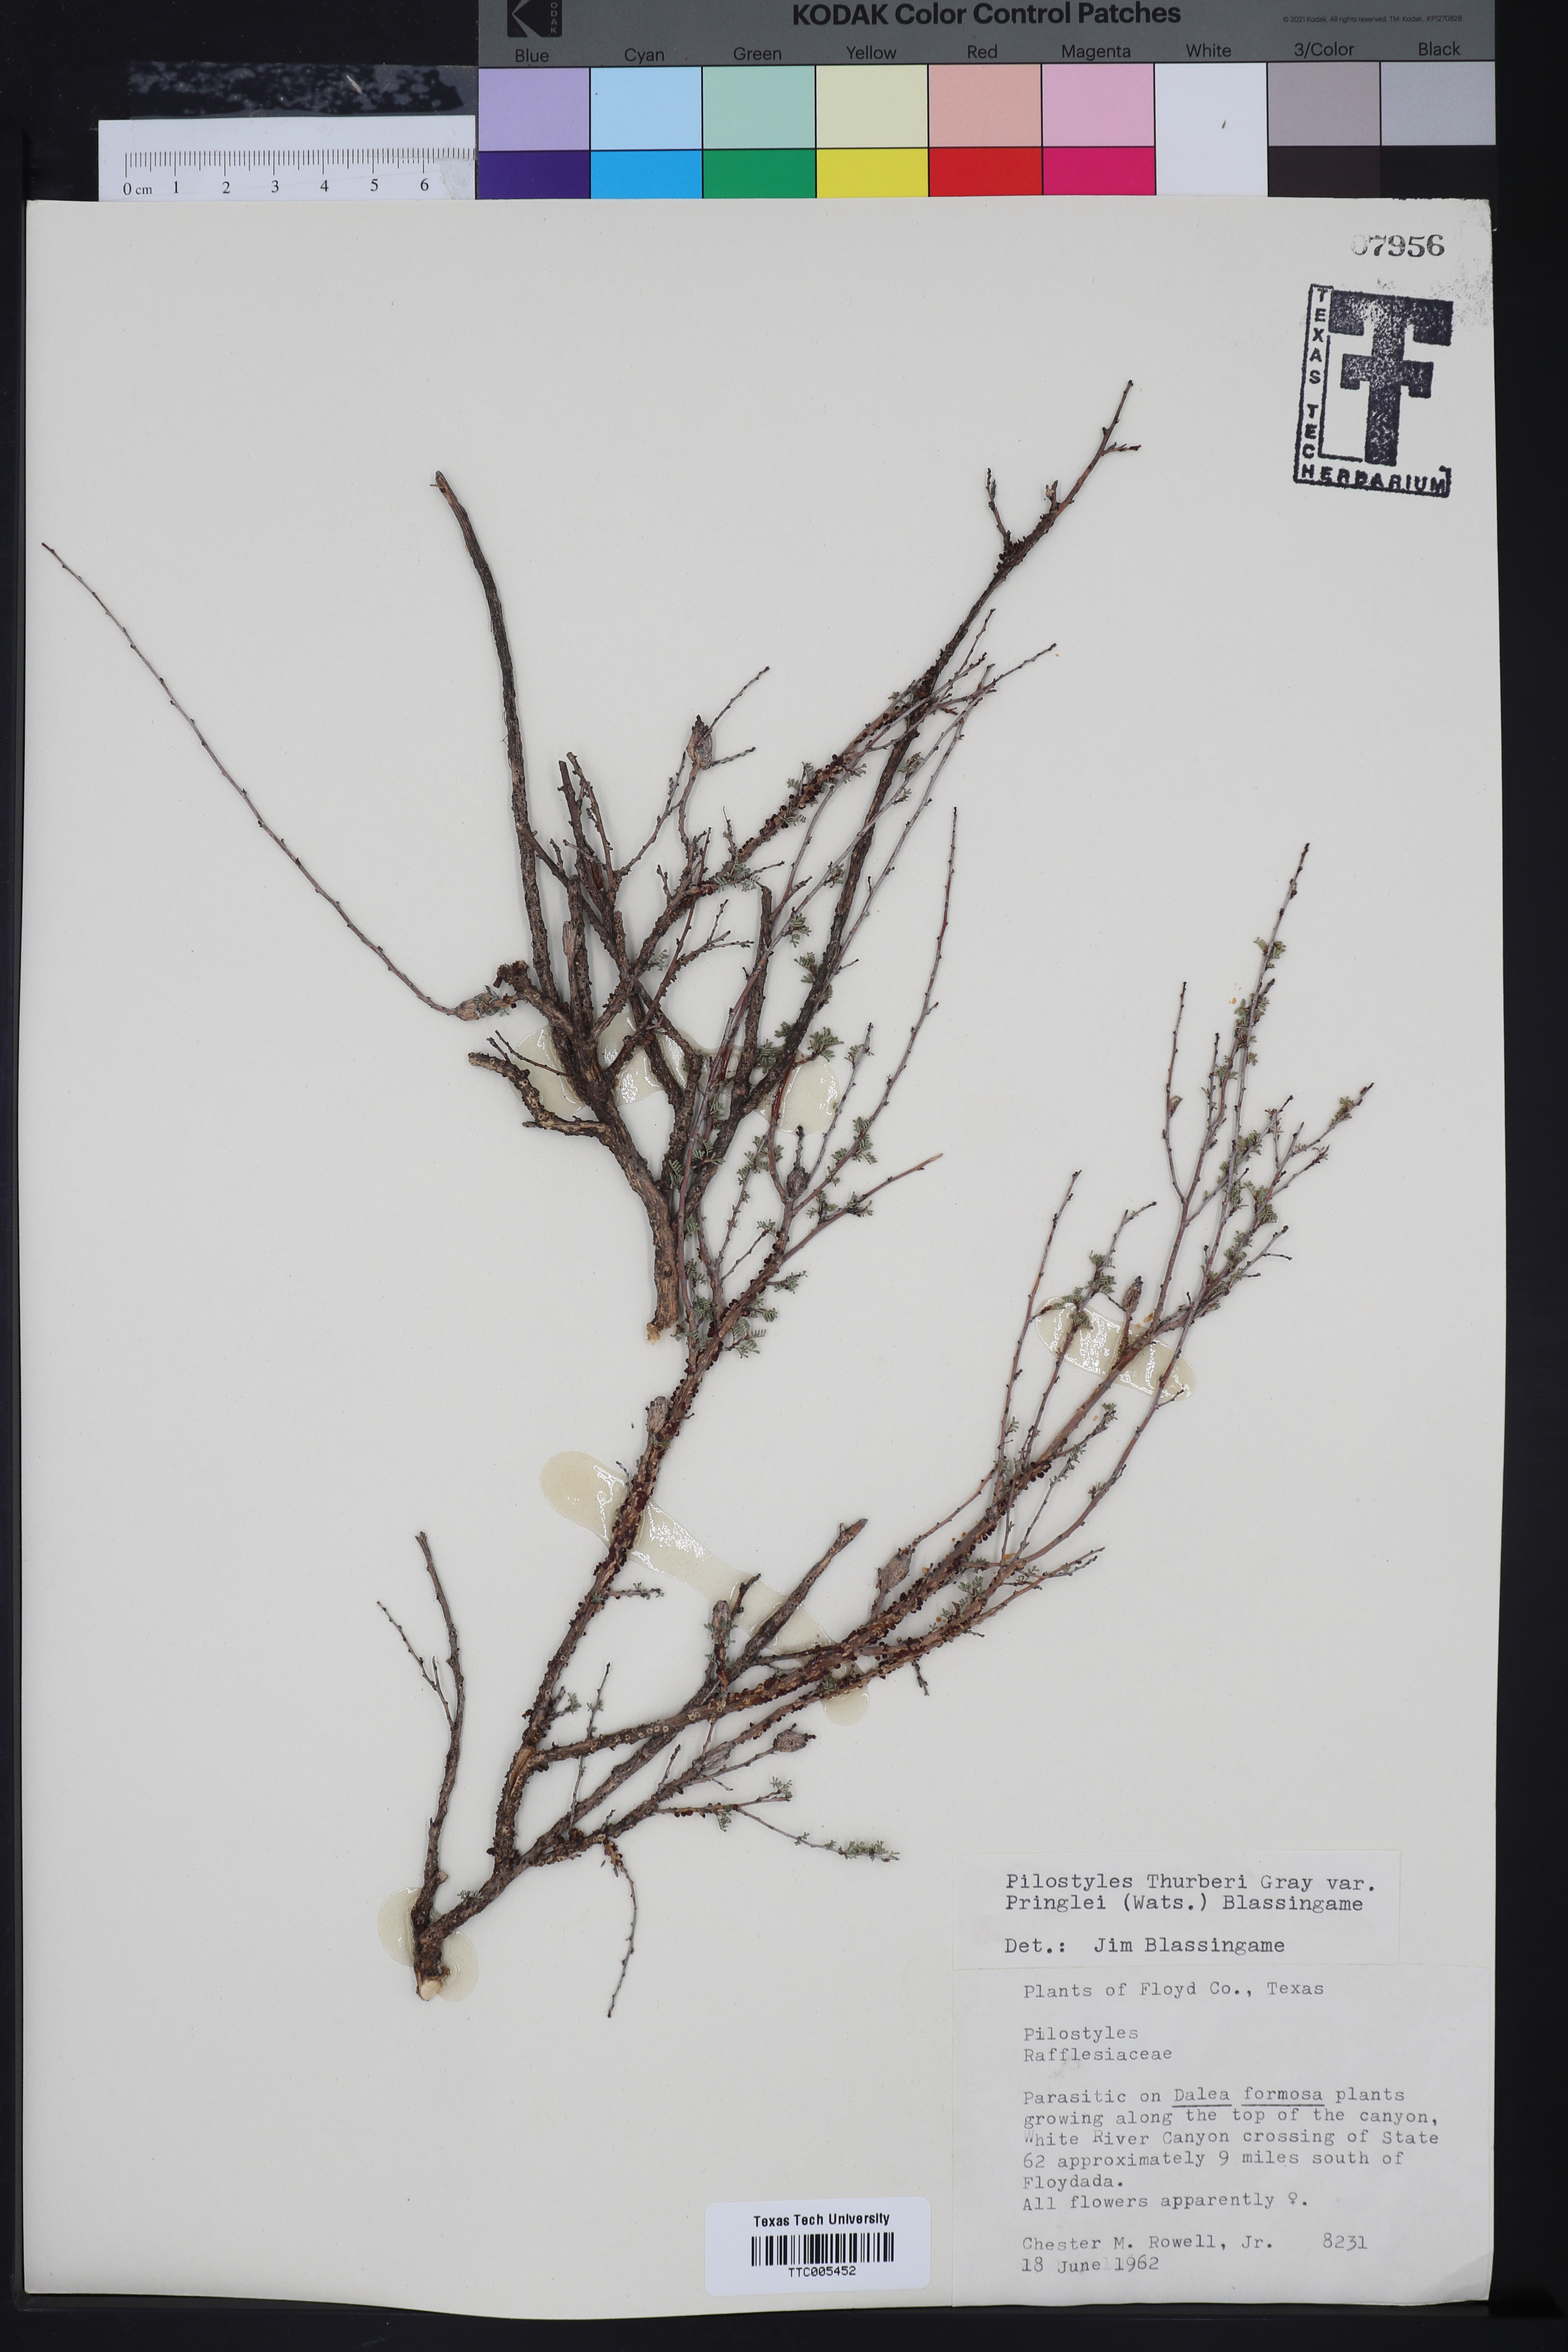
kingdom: Plantae
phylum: Tracheophyta
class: Magnoliopsida
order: Cucurbitales
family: Apodanthaceae
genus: Pilostyles
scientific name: Pilostyles thurberi
